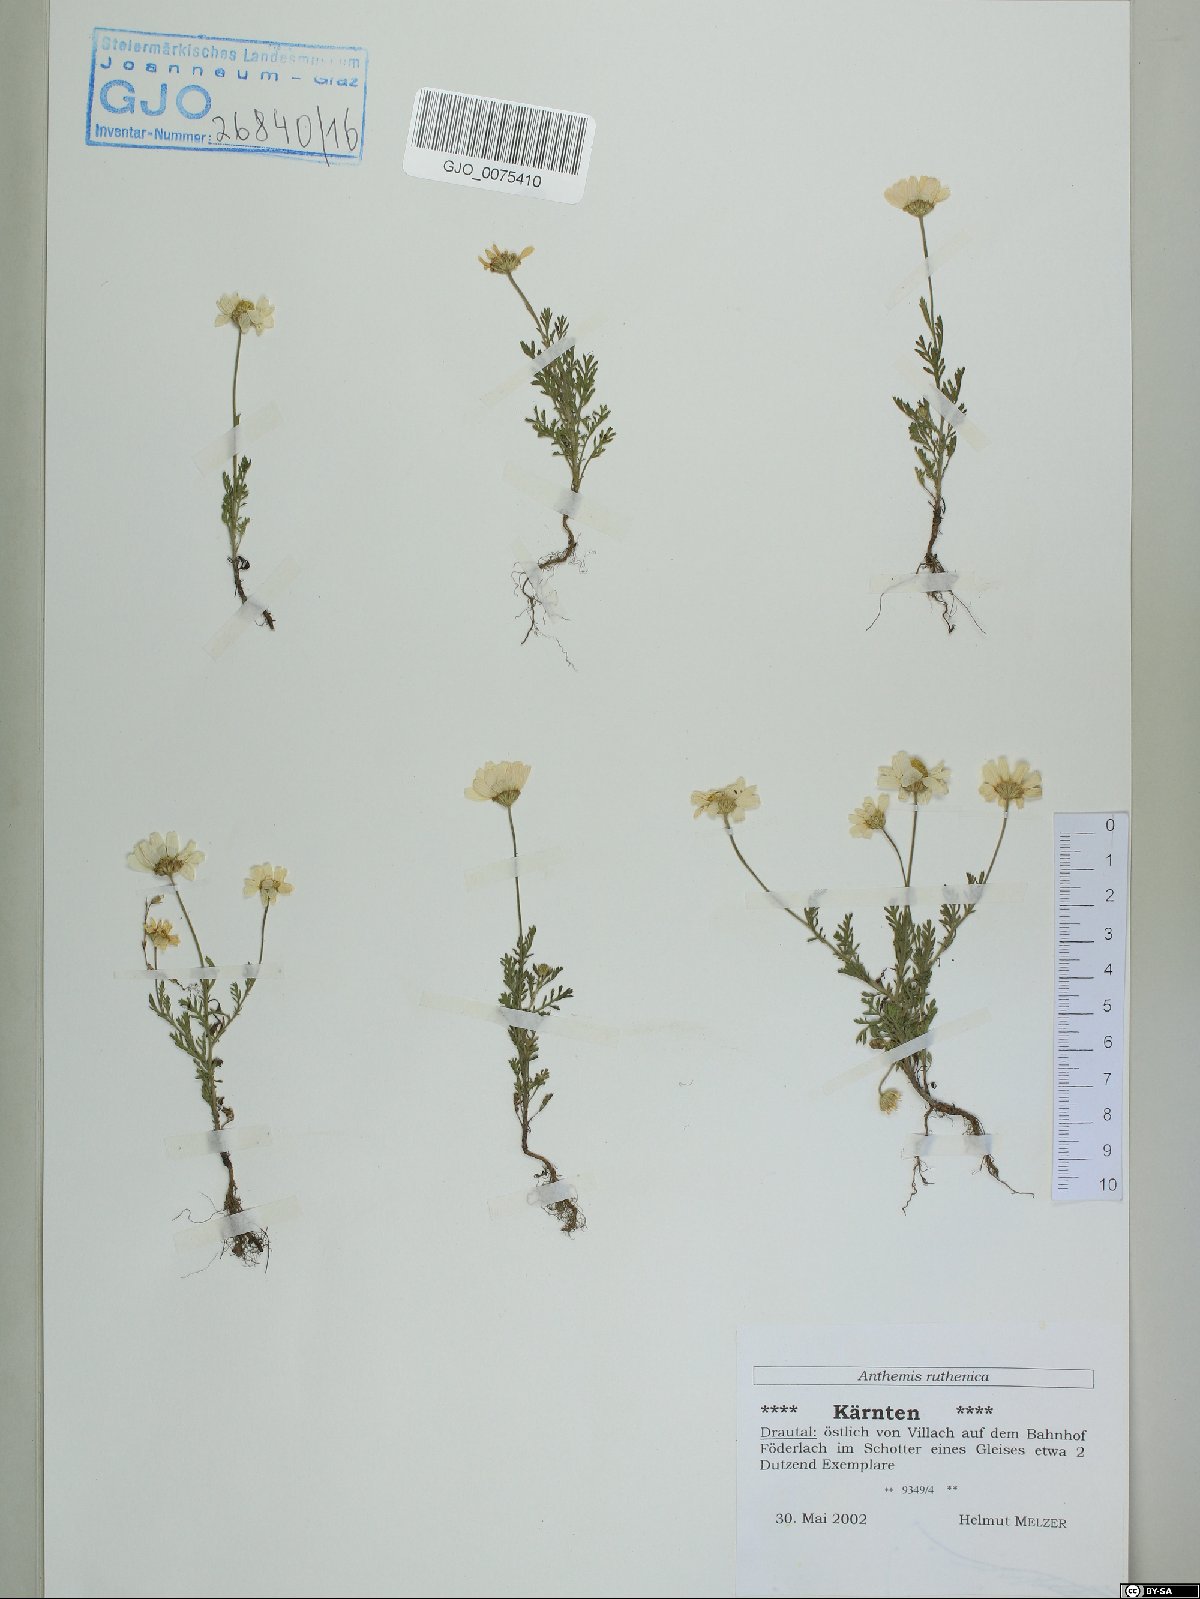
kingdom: Plantae
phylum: Tracheophyta
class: Magnoliopsida
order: Asterales
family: Asteraceae
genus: Anthemis
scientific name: Anthemis ruthenica
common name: Eastern chamomile
